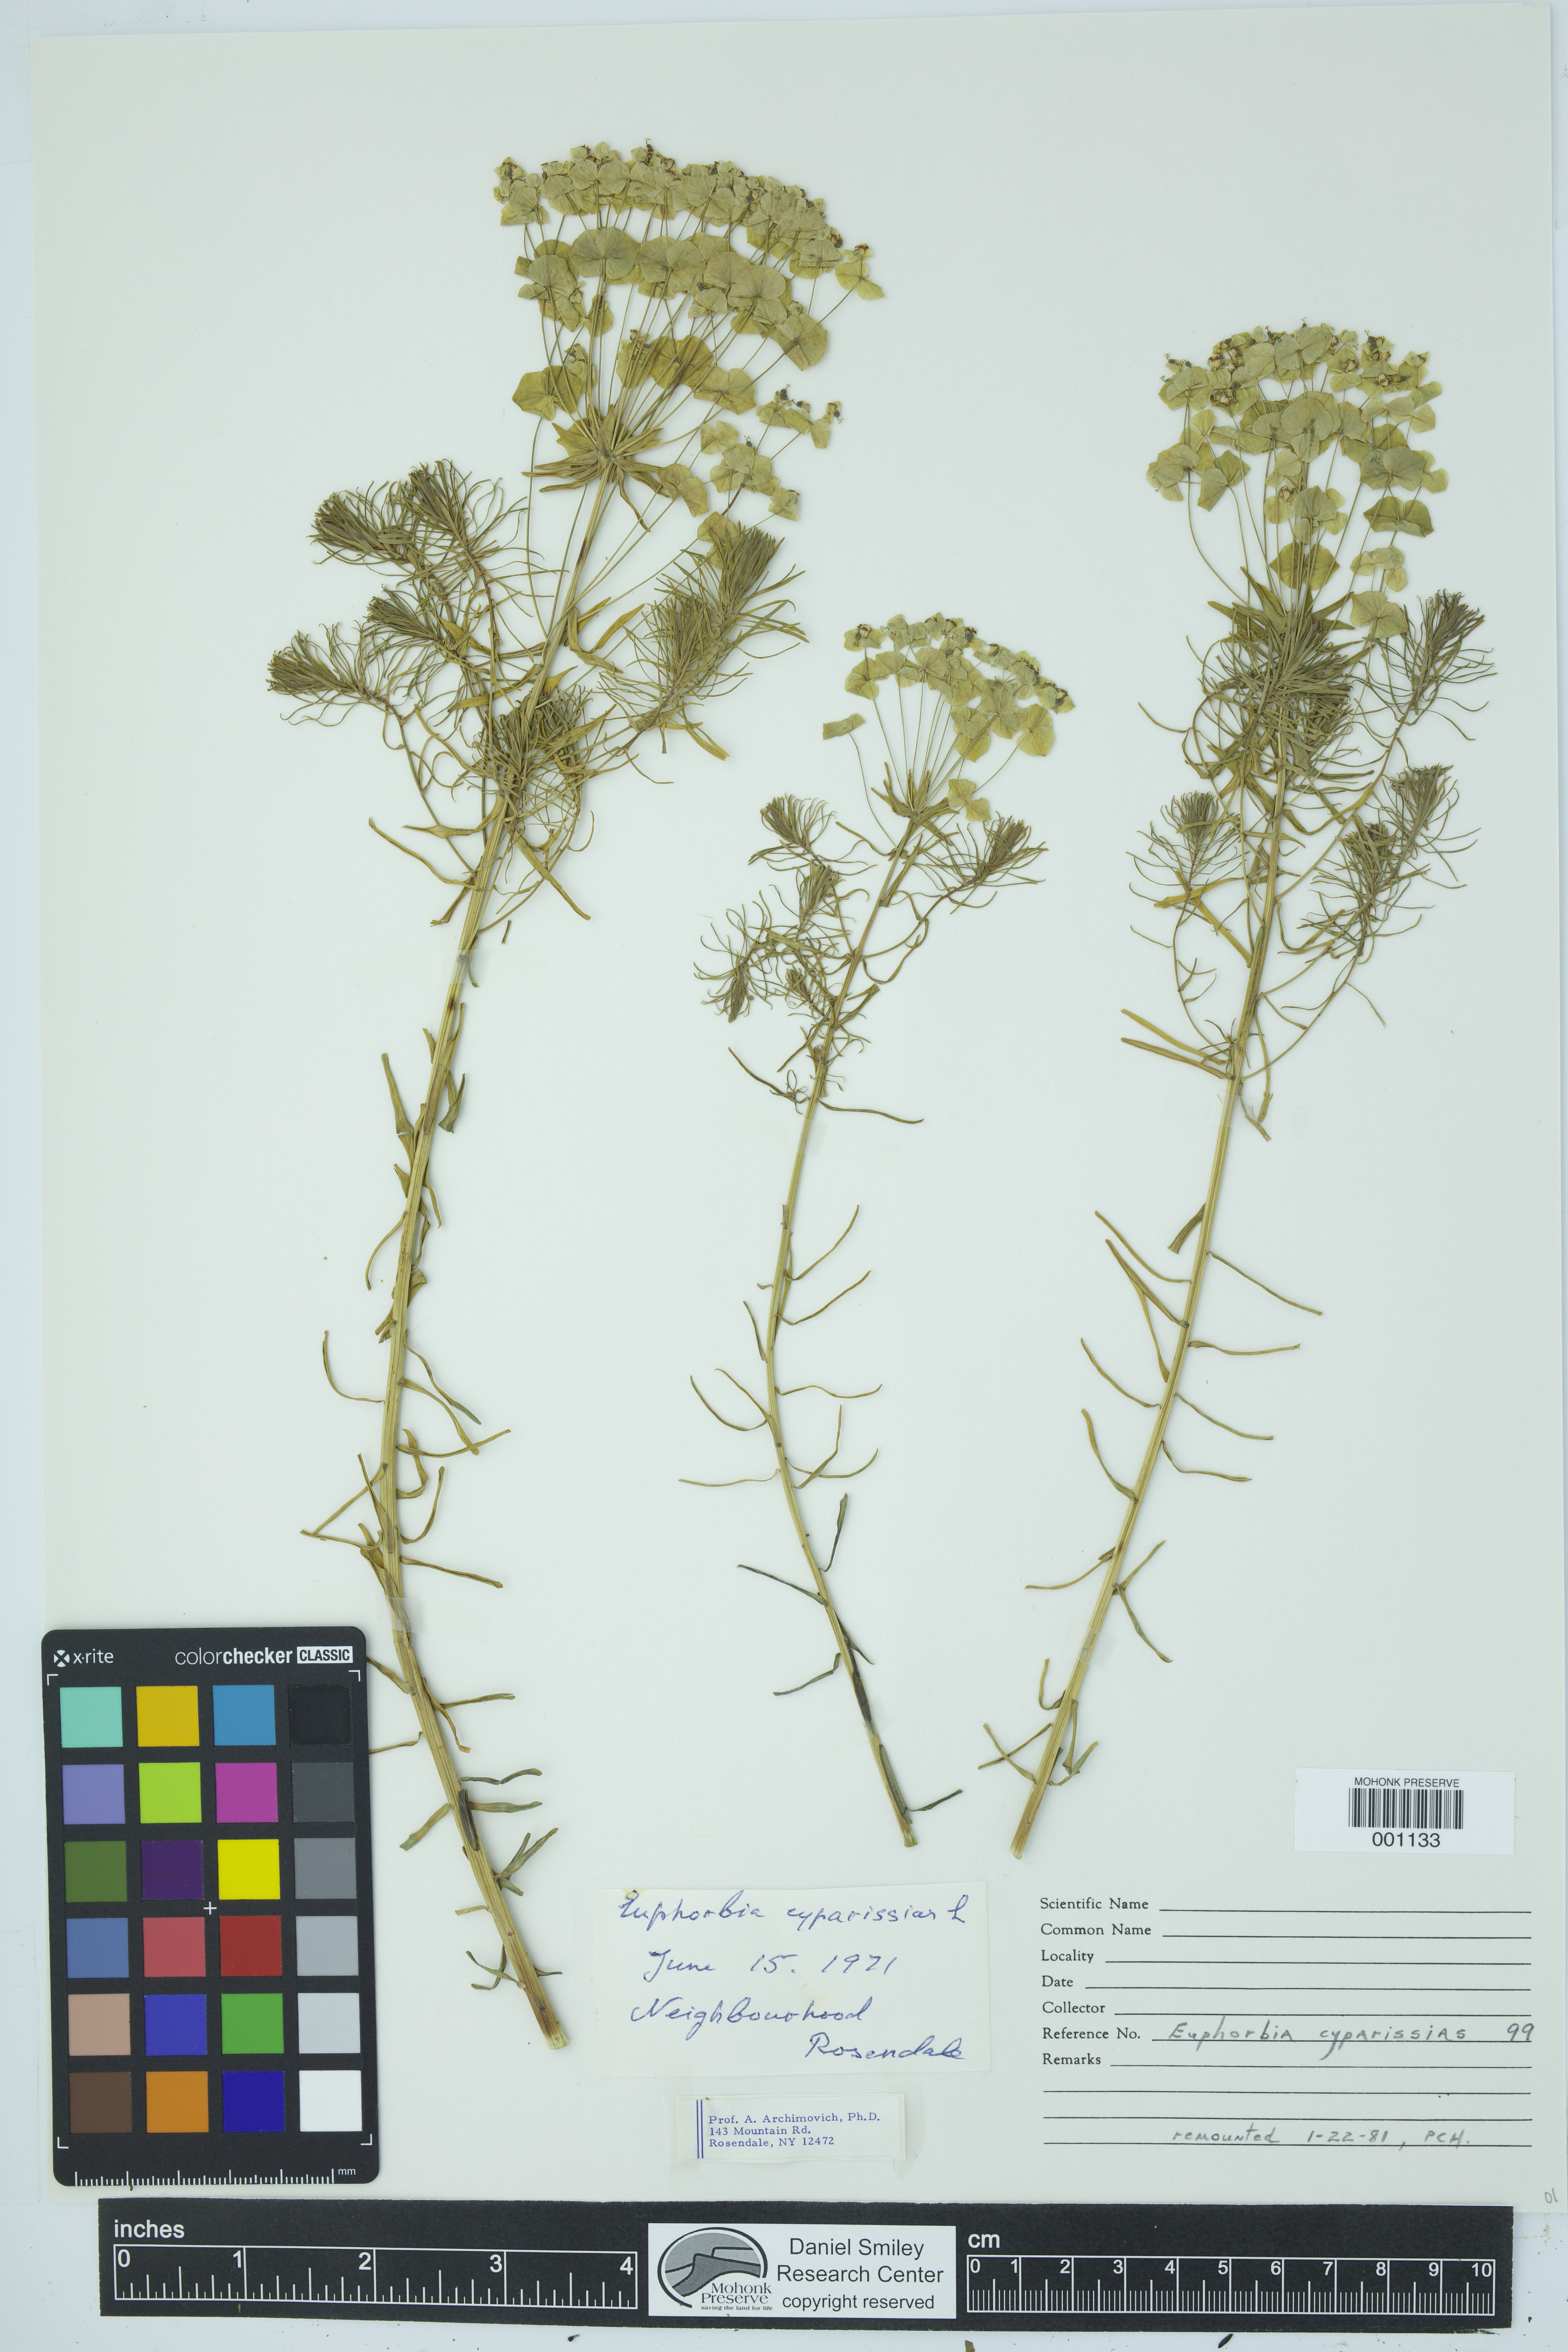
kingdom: Plantae
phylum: Tracheophyta
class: Magnoliopsida
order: Malpighiales
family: Euphorbiaceae
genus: Euphorbia
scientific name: Euphorbia cyparissias
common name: Cypress spurge
